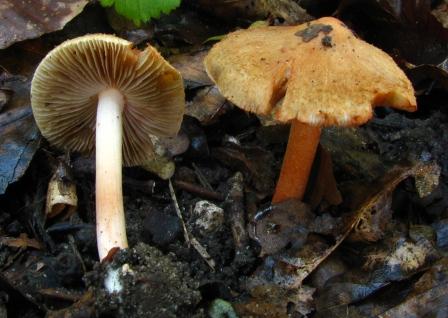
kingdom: Fungi
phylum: Basidiomycota
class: Agaricomycetes
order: Agaricales
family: Inocybaceae
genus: Inocybe
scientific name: Inocybe godeyi
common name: orangerødmende trævlhat
